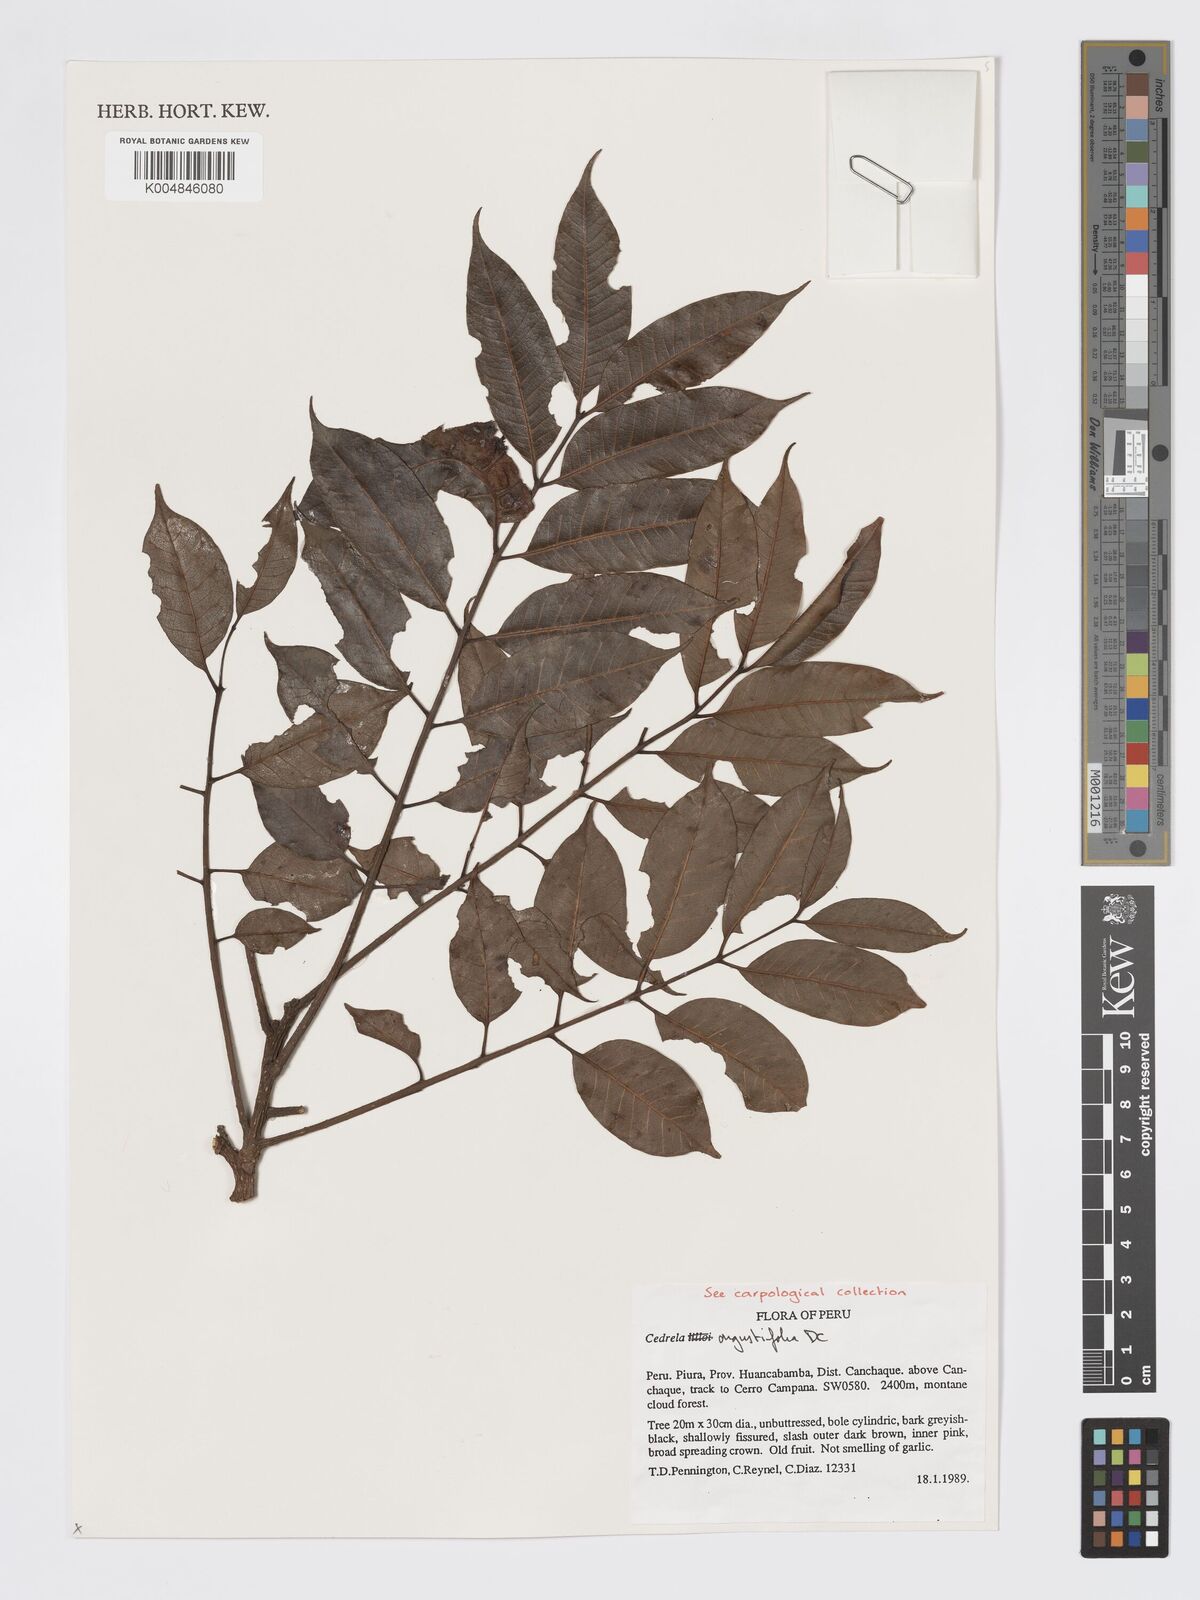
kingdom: Plantae
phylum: Tracheophyta
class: Magnoliopsida
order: Sapindales
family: Meliaceae
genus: Cedrela
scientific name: Cedrela odorata
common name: Red cedar
